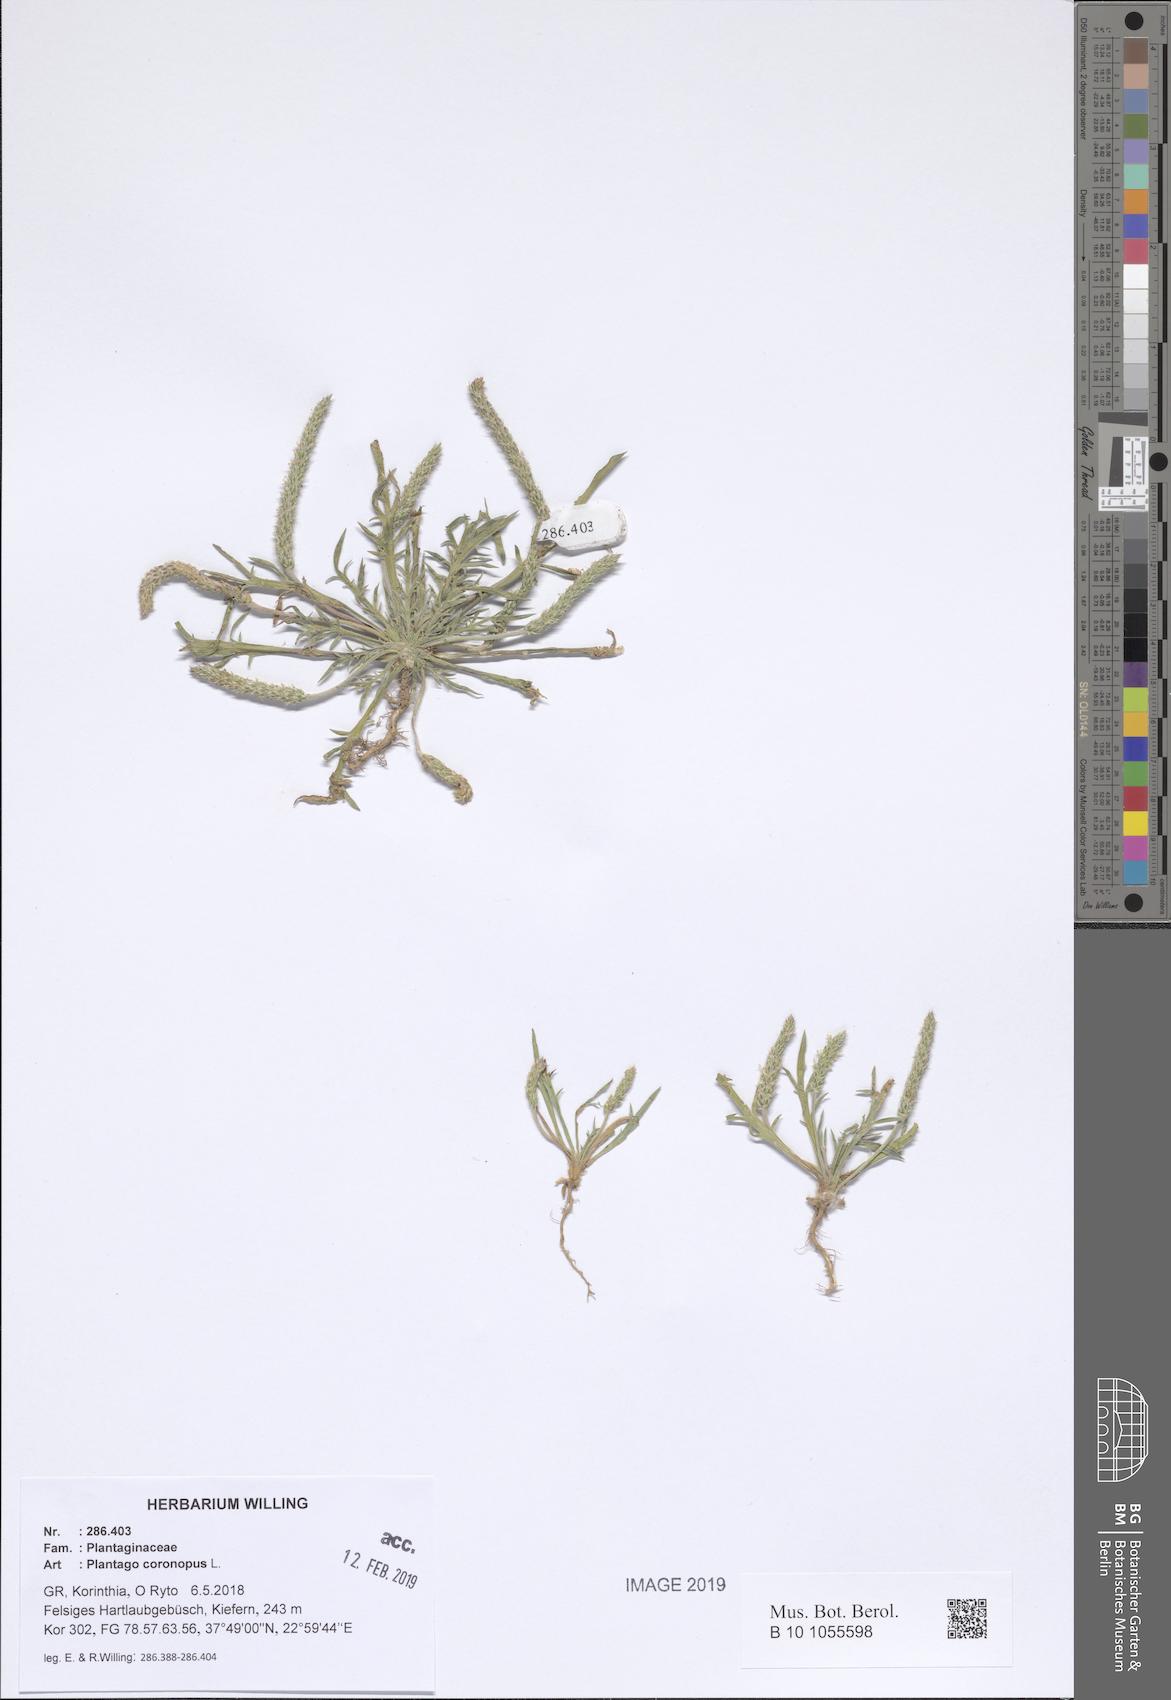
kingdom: Plantae
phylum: Tracheophyta
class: Magnoliopsida
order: Lamiales
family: Plantaginaceae
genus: Plantago
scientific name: Plantago coronopus
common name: Buck's-horn plantain
